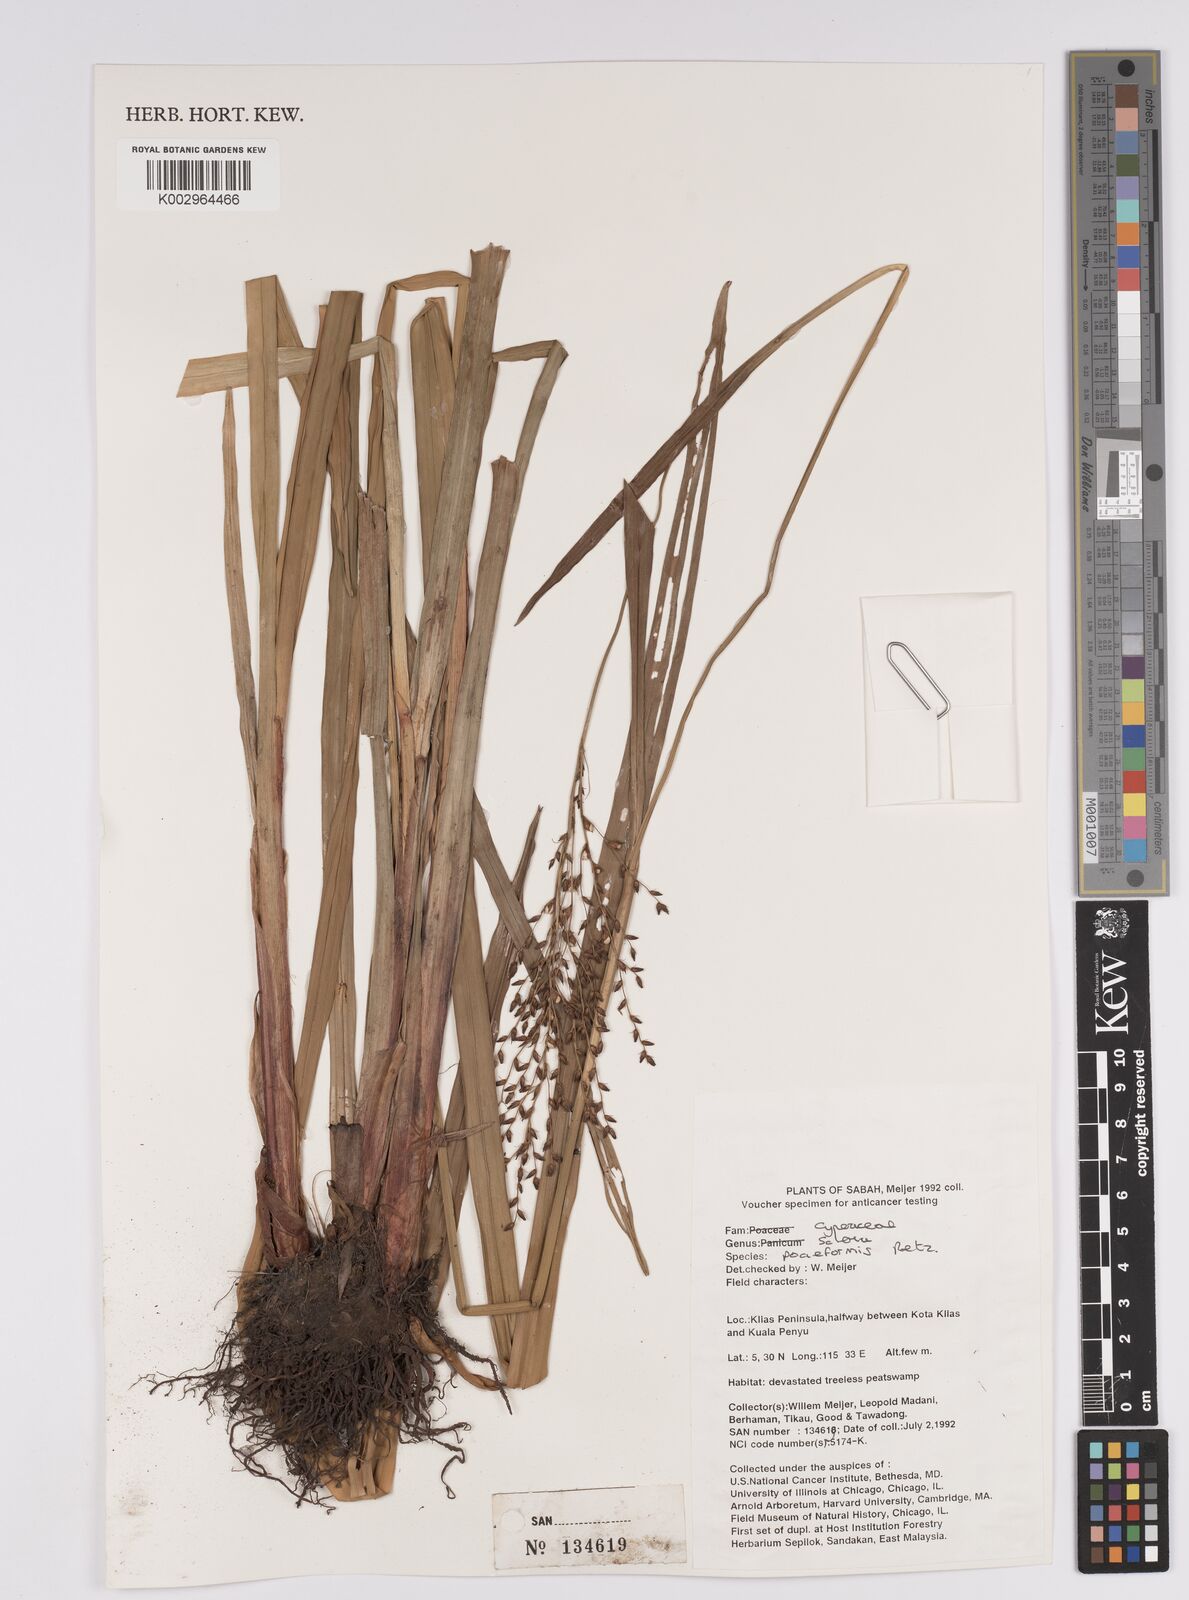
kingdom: Plantae
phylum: Tracheophyta
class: Liliopsida
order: Poales
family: Cyperaceae
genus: Scleria
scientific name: Scleria poiformis
